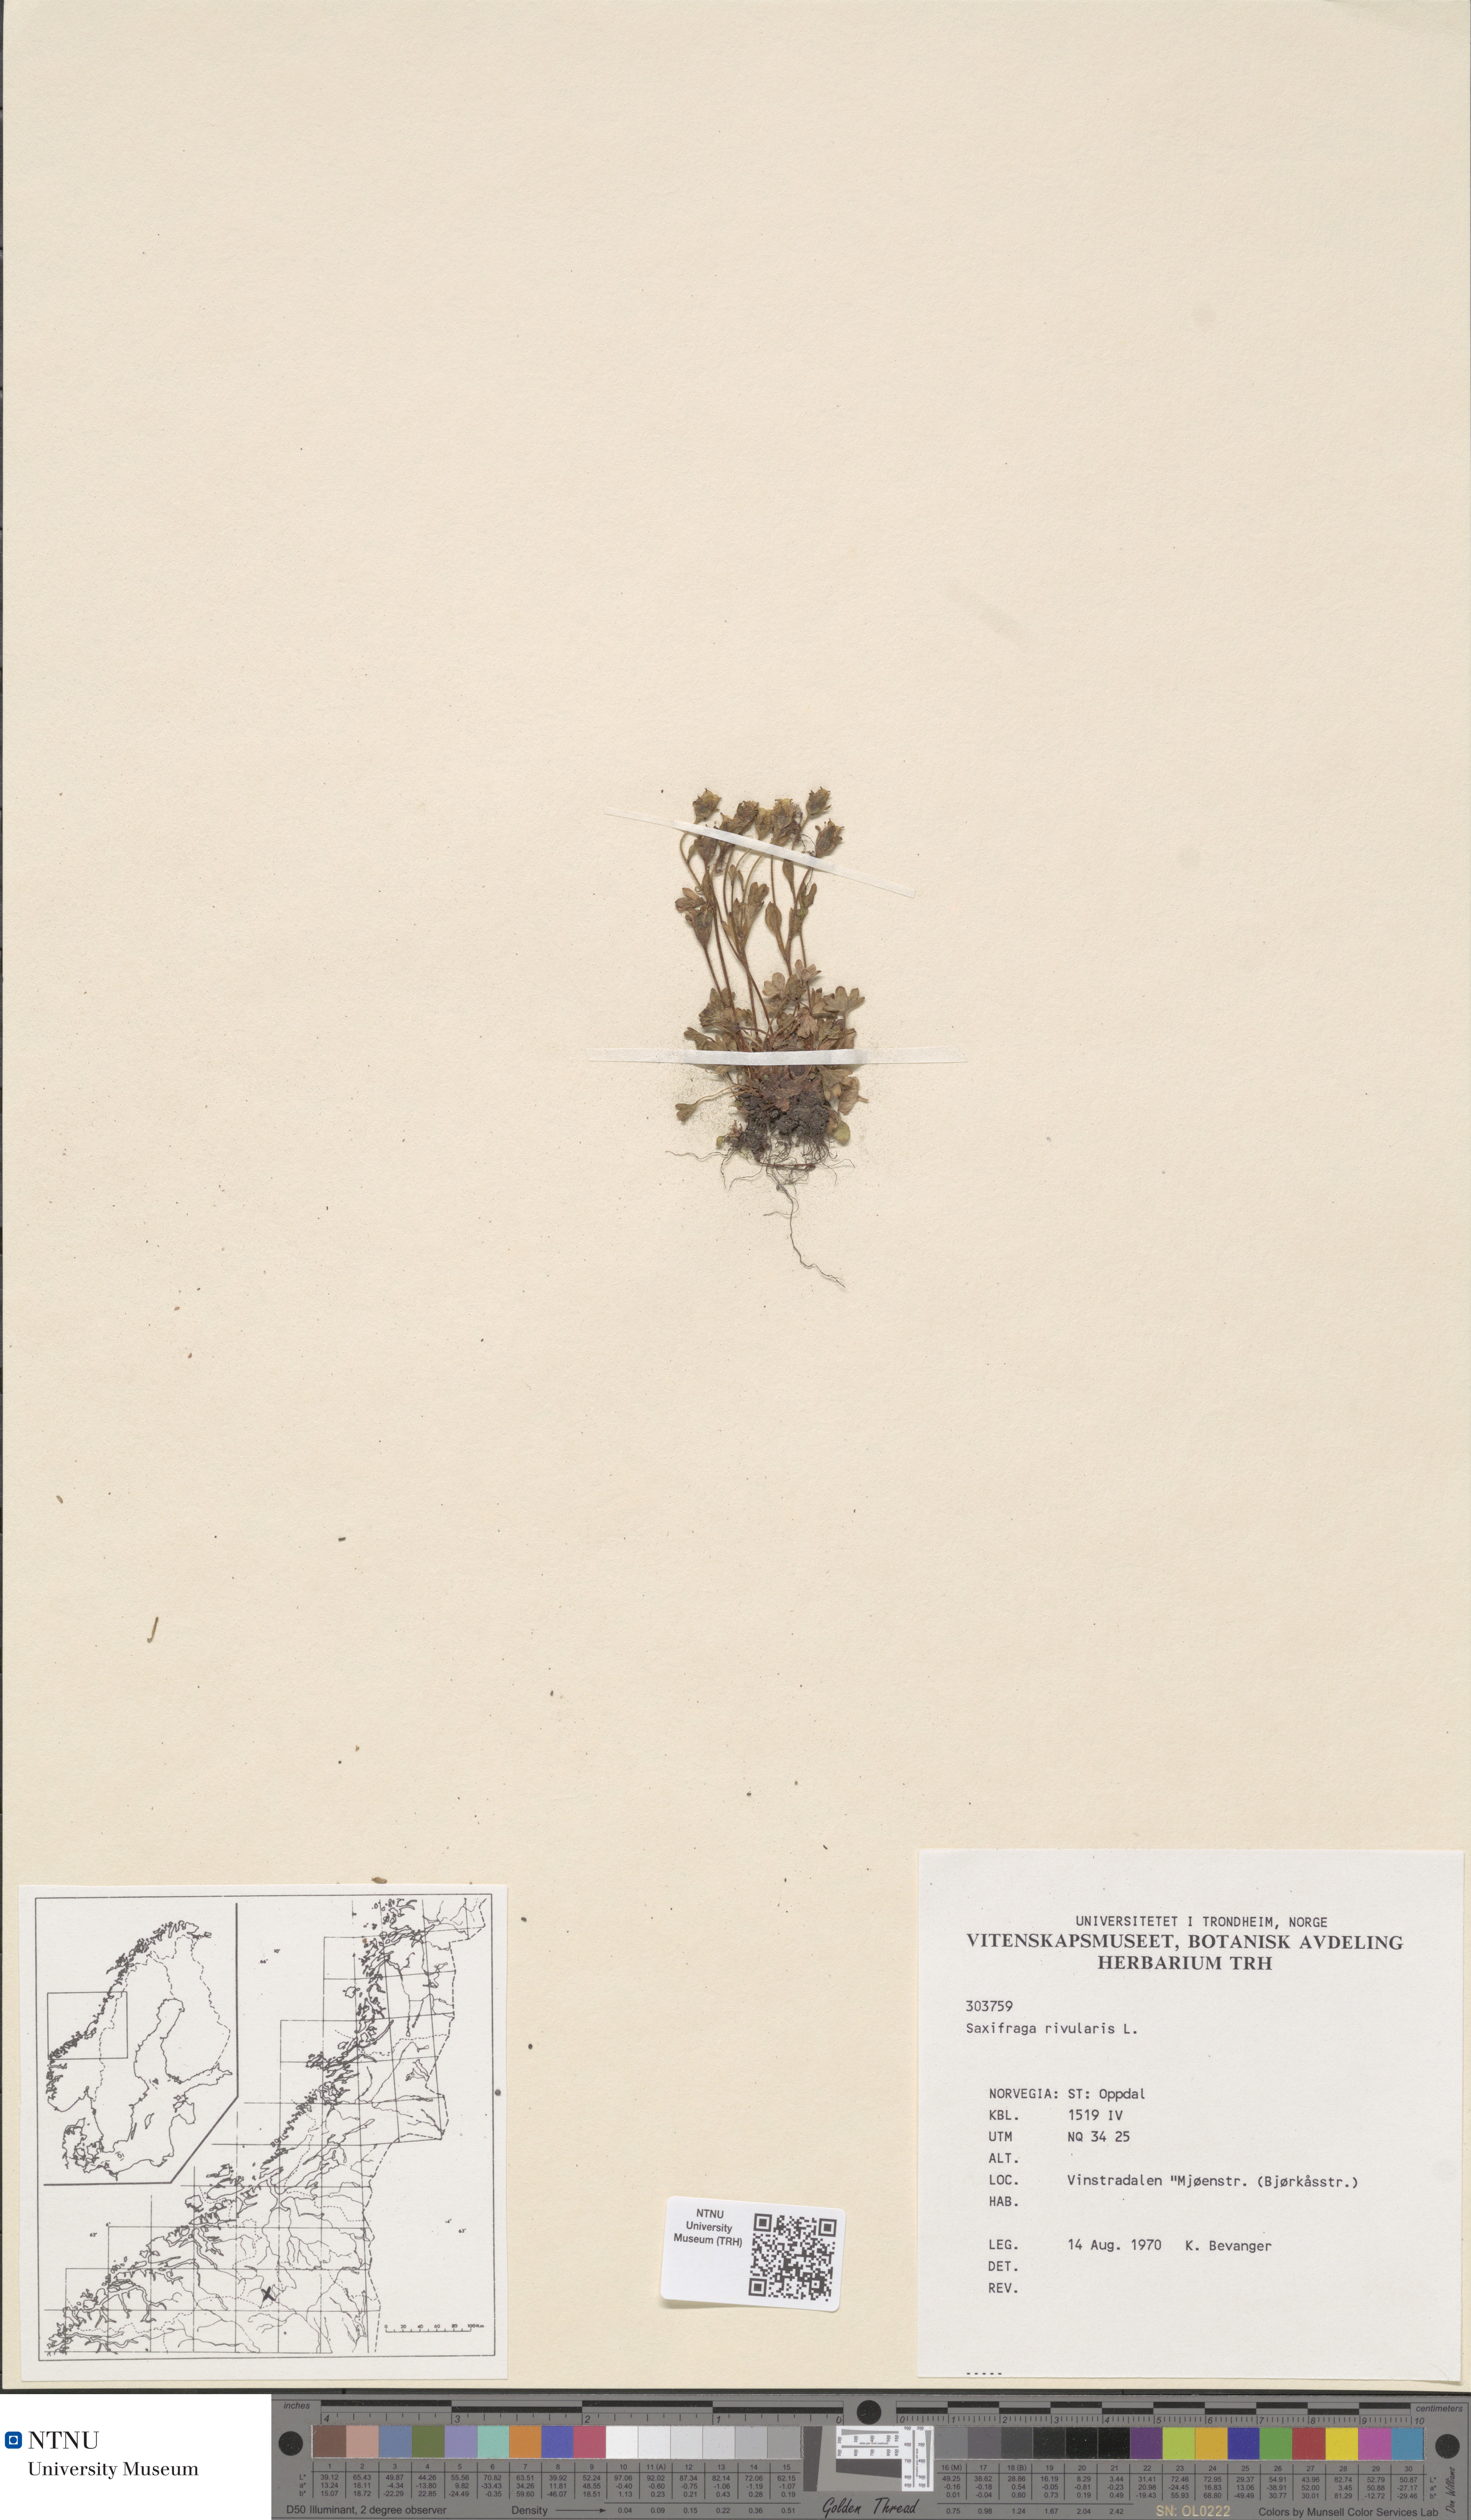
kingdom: Plantae
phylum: Tracheophyta
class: Magnoliopsida
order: Saxifragales
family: Saxifragaceae
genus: Saxifraga
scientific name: Saxifraga rivularis
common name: Highland saxifrage
